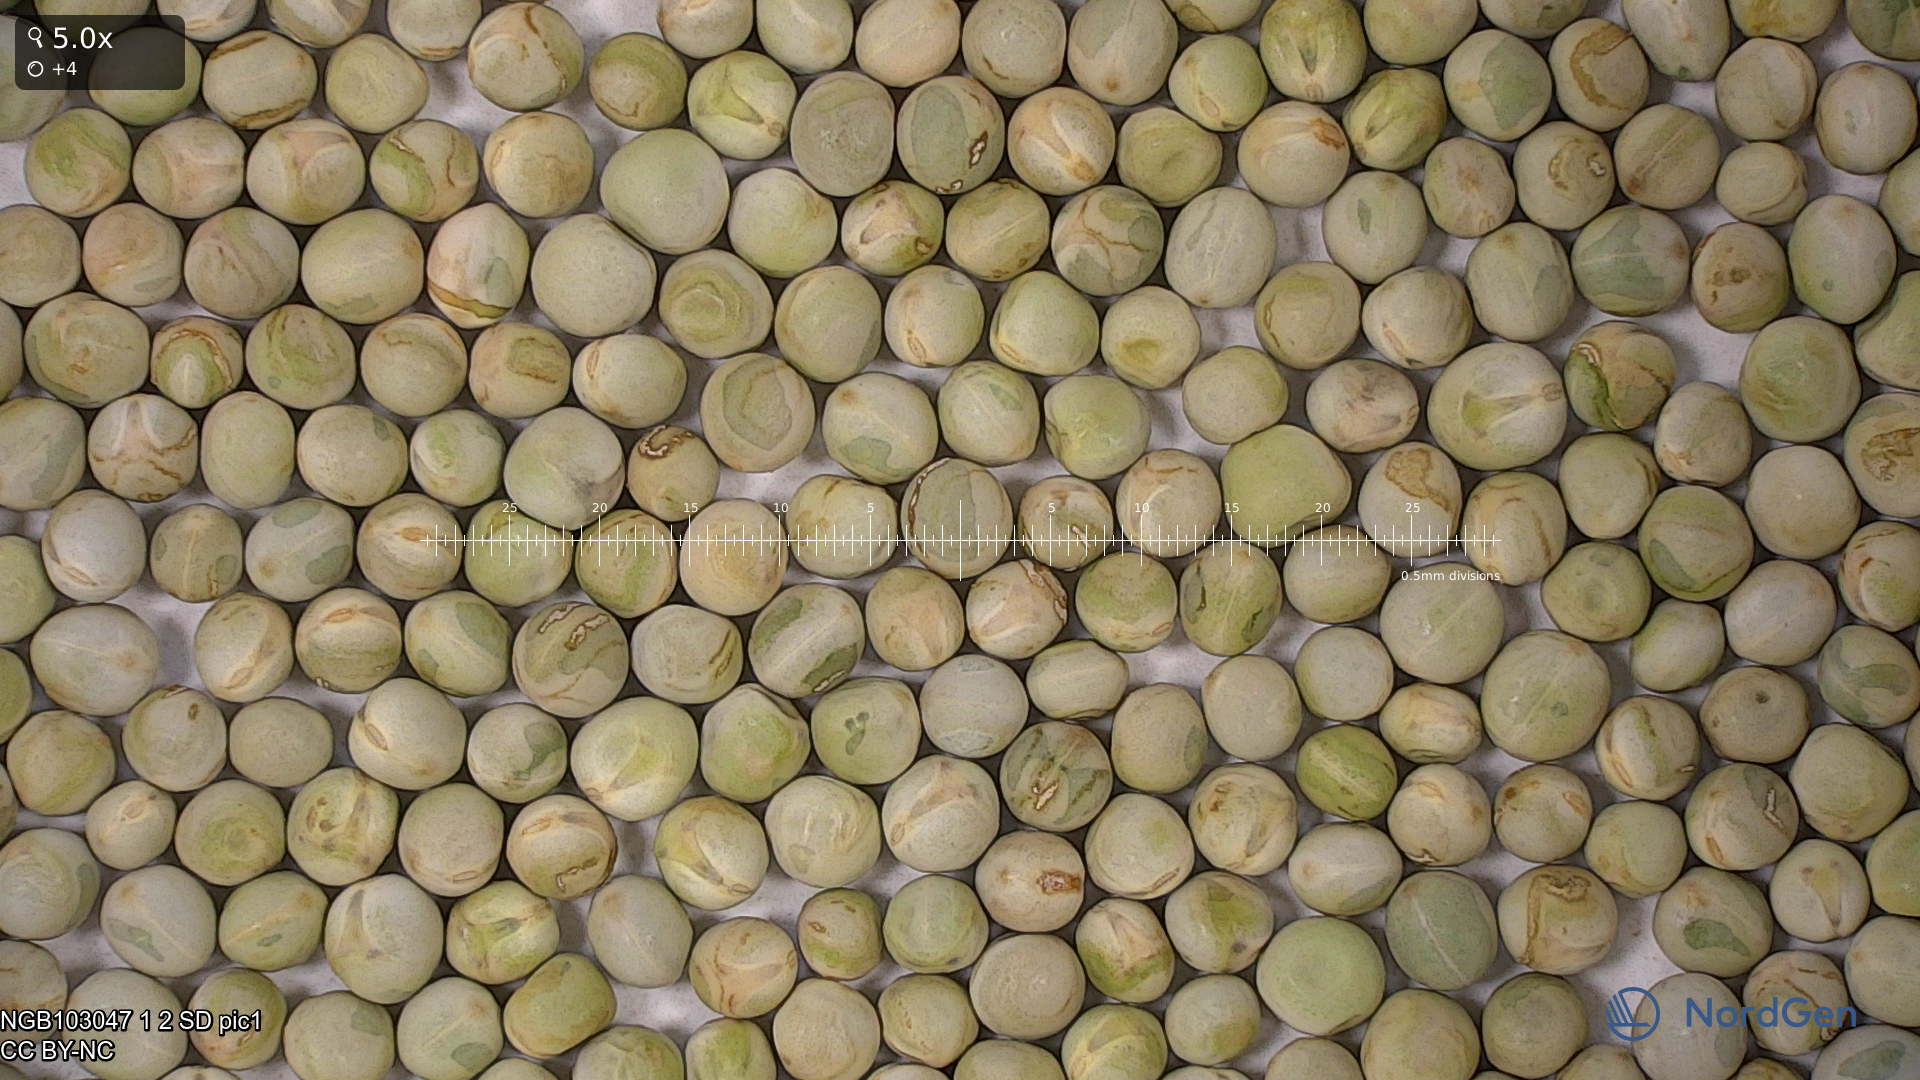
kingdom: Plantae
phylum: Tracheophyta
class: Magnoliopsida
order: Fabales
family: Fabaceae
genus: Lathyrus
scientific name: Lathyrus oleraceus
